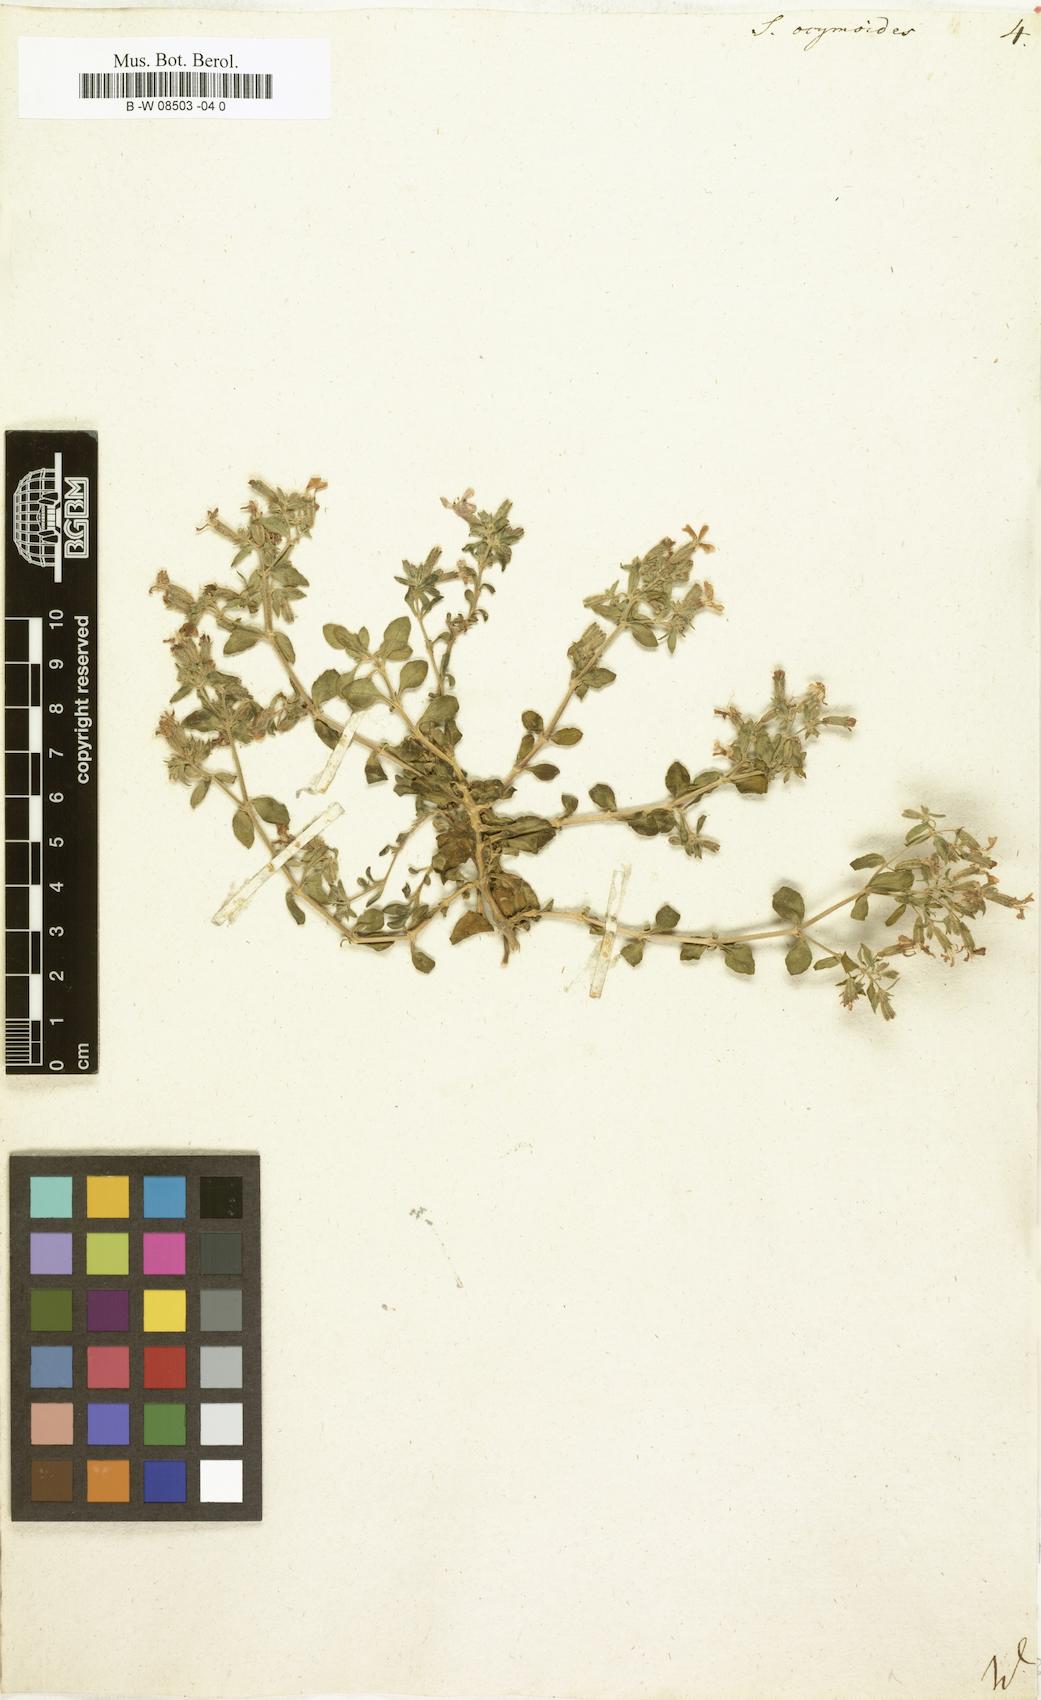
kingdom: Plantae
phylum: Tracheophyta
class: Magnoliopsida
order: Caryophyllales
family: Caryophyllaceae
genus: Saponaria
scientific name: Saponaria ocymoides
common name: Rock soapwort
